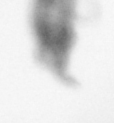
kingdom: Animalia
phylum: Arthropoda
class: Copepoda
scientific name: Copepoda
